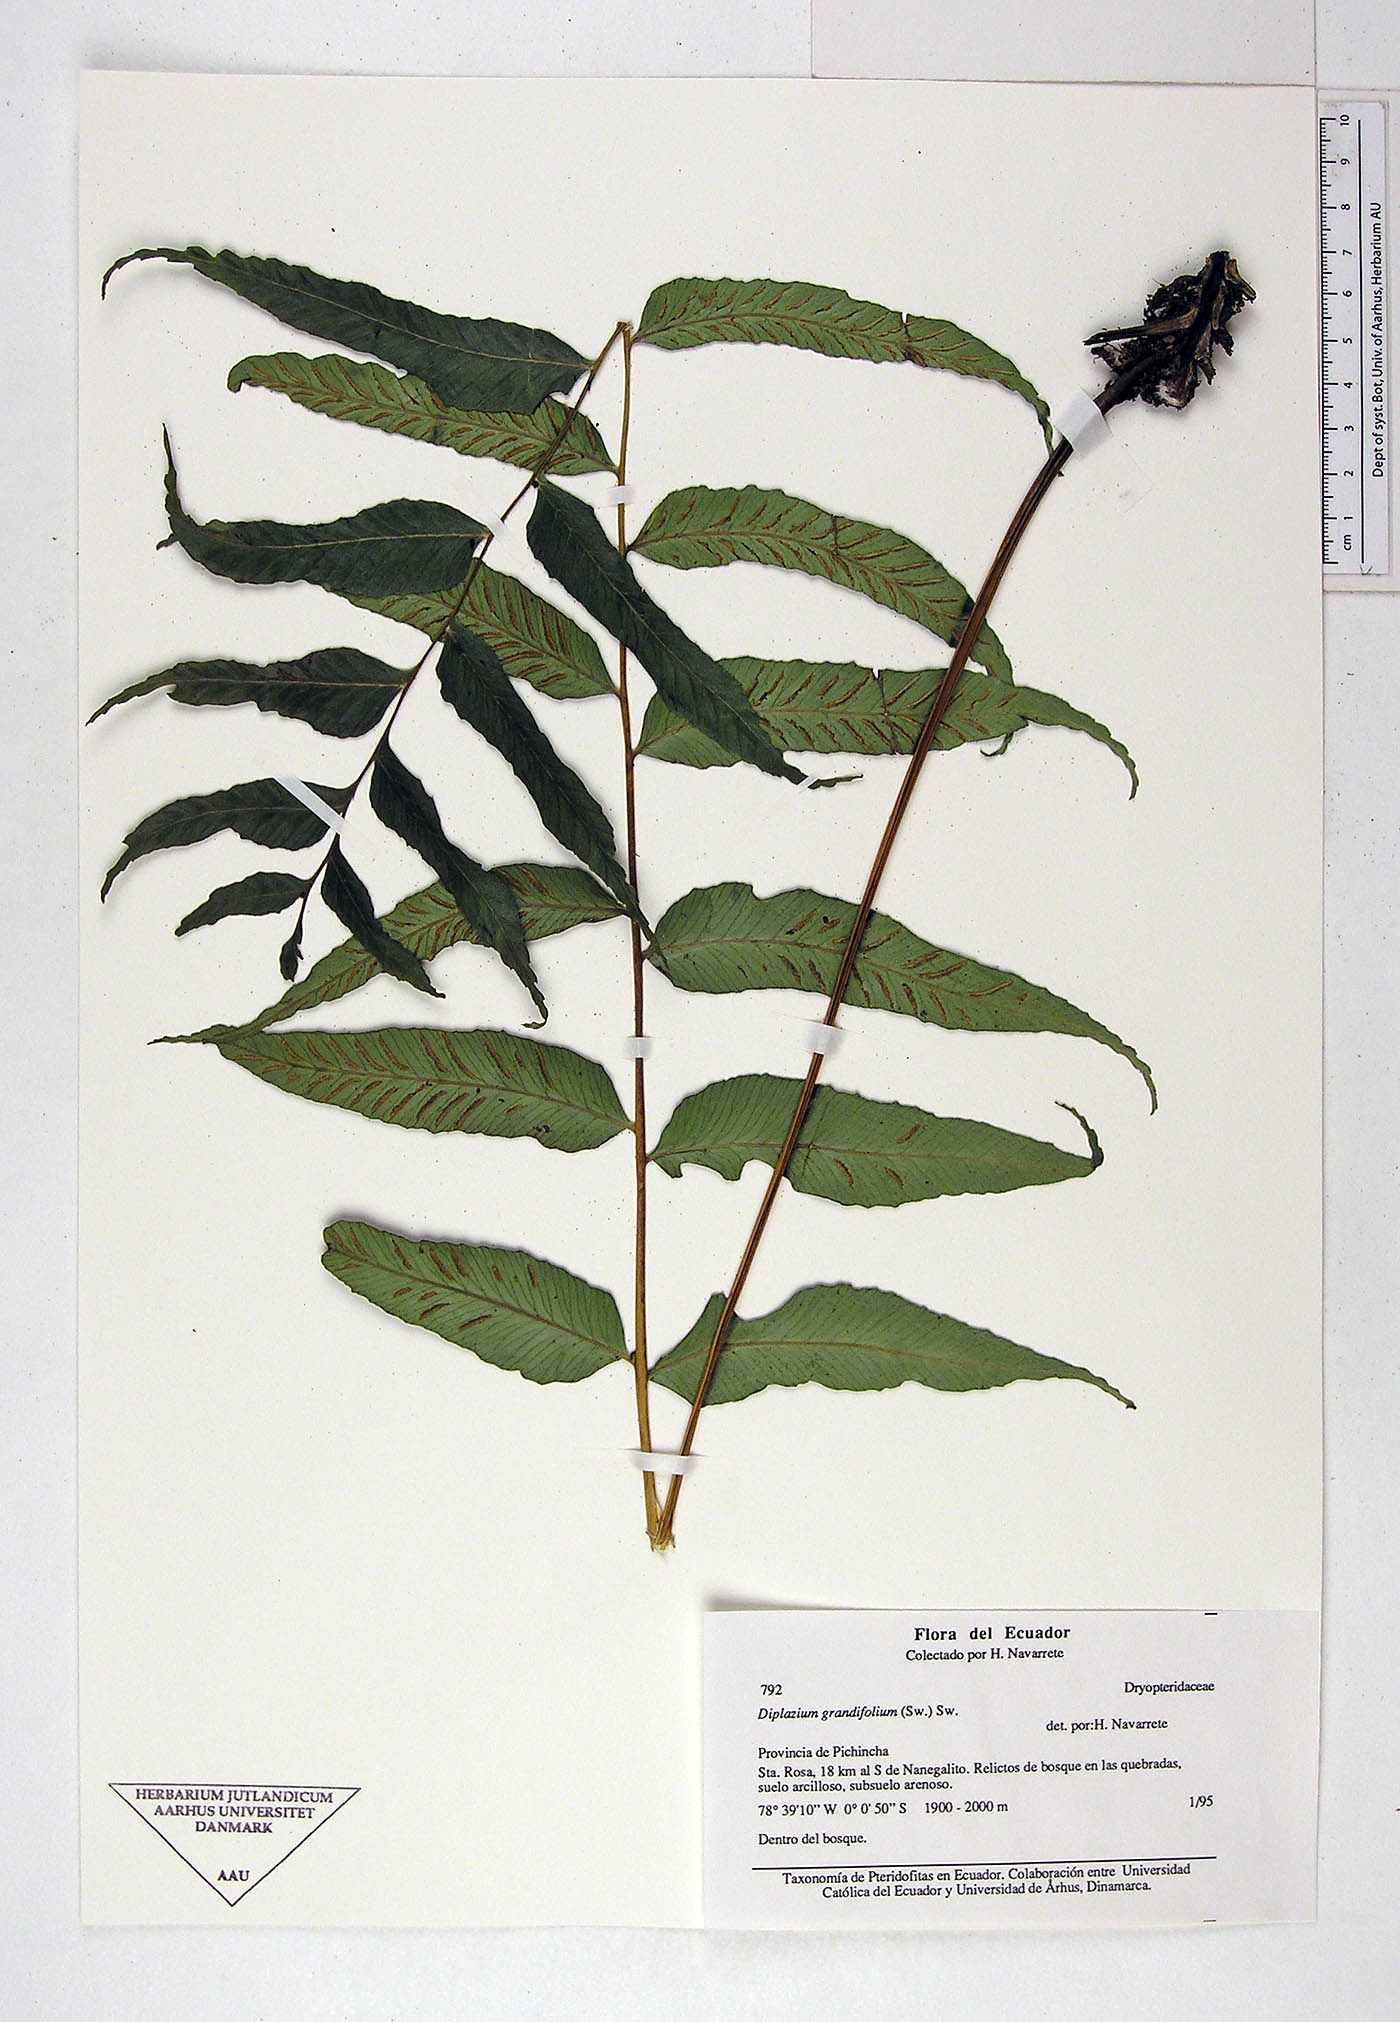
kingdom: Plantae
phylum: Tracheophyta
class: Polypodiopsida
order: Polypodiales
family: Athyriaceae
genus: Diplazium
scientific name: Diplazium
